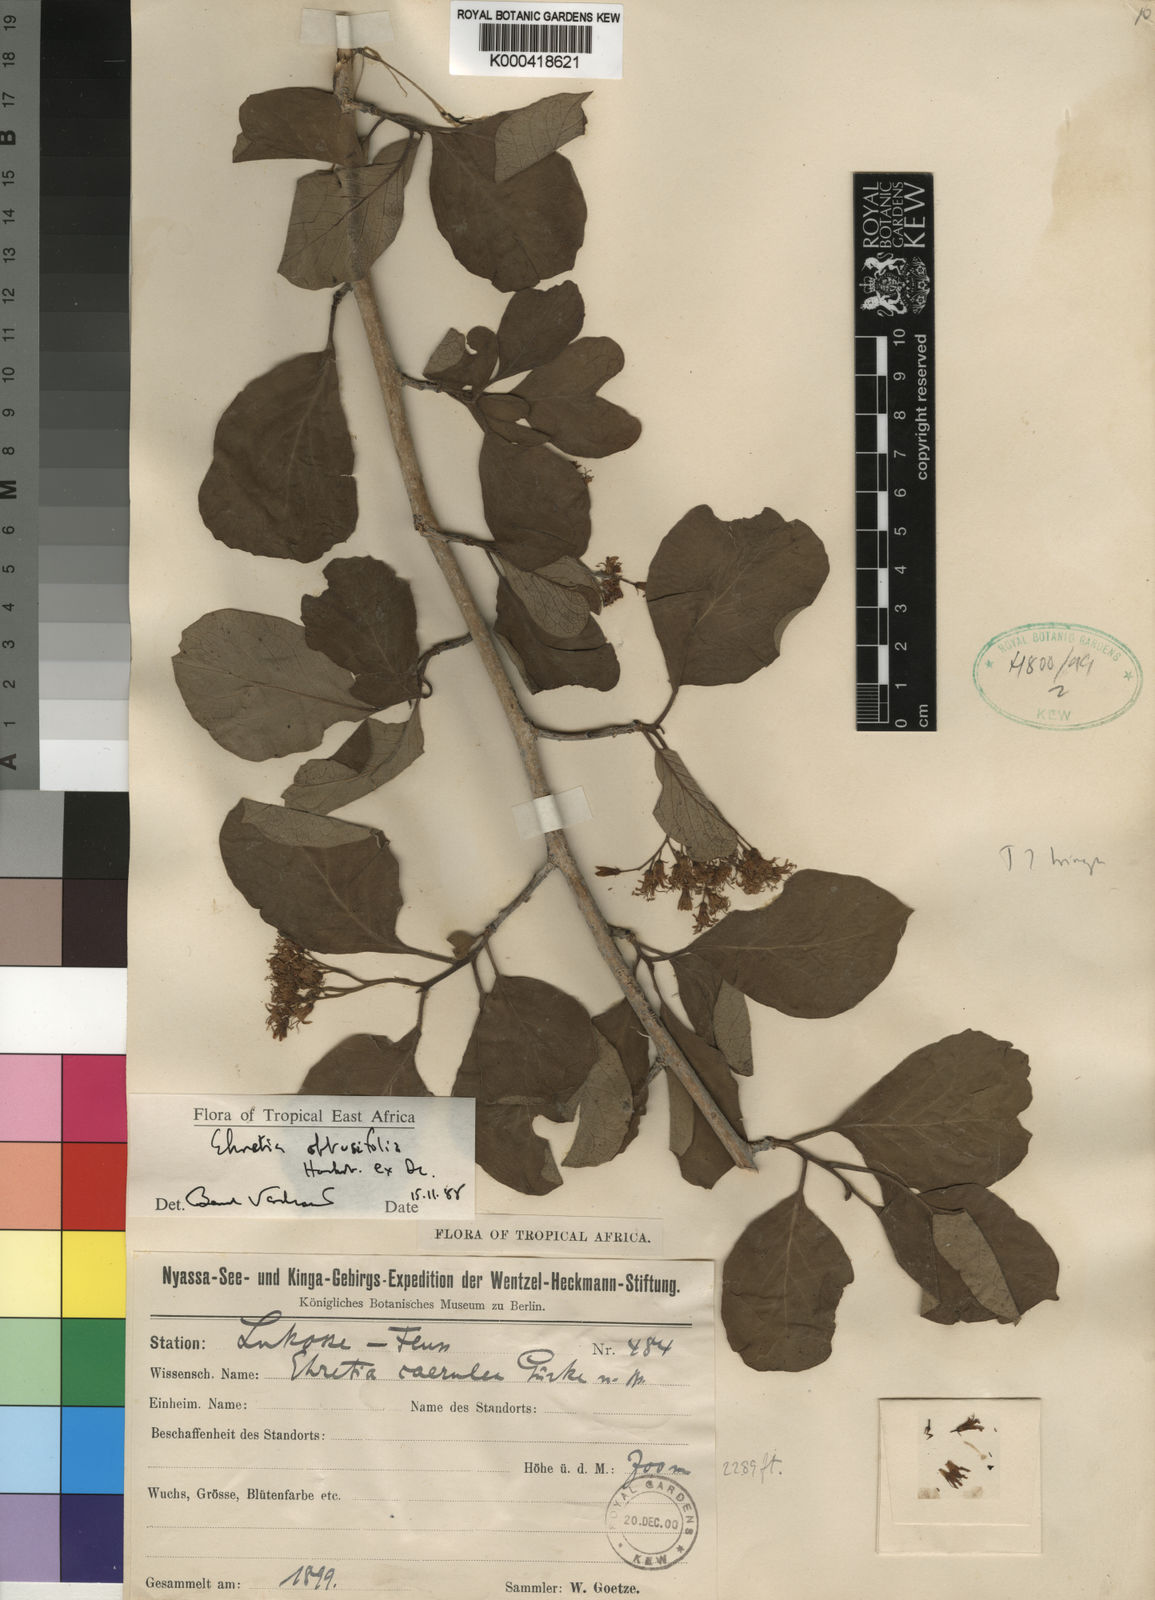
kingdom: Plantae
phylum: Tracheophyta
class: Magnoliopsida
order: Boraginales
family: Ehretiaceae
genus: Ehretia
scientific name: Ehretia obtusifolia
